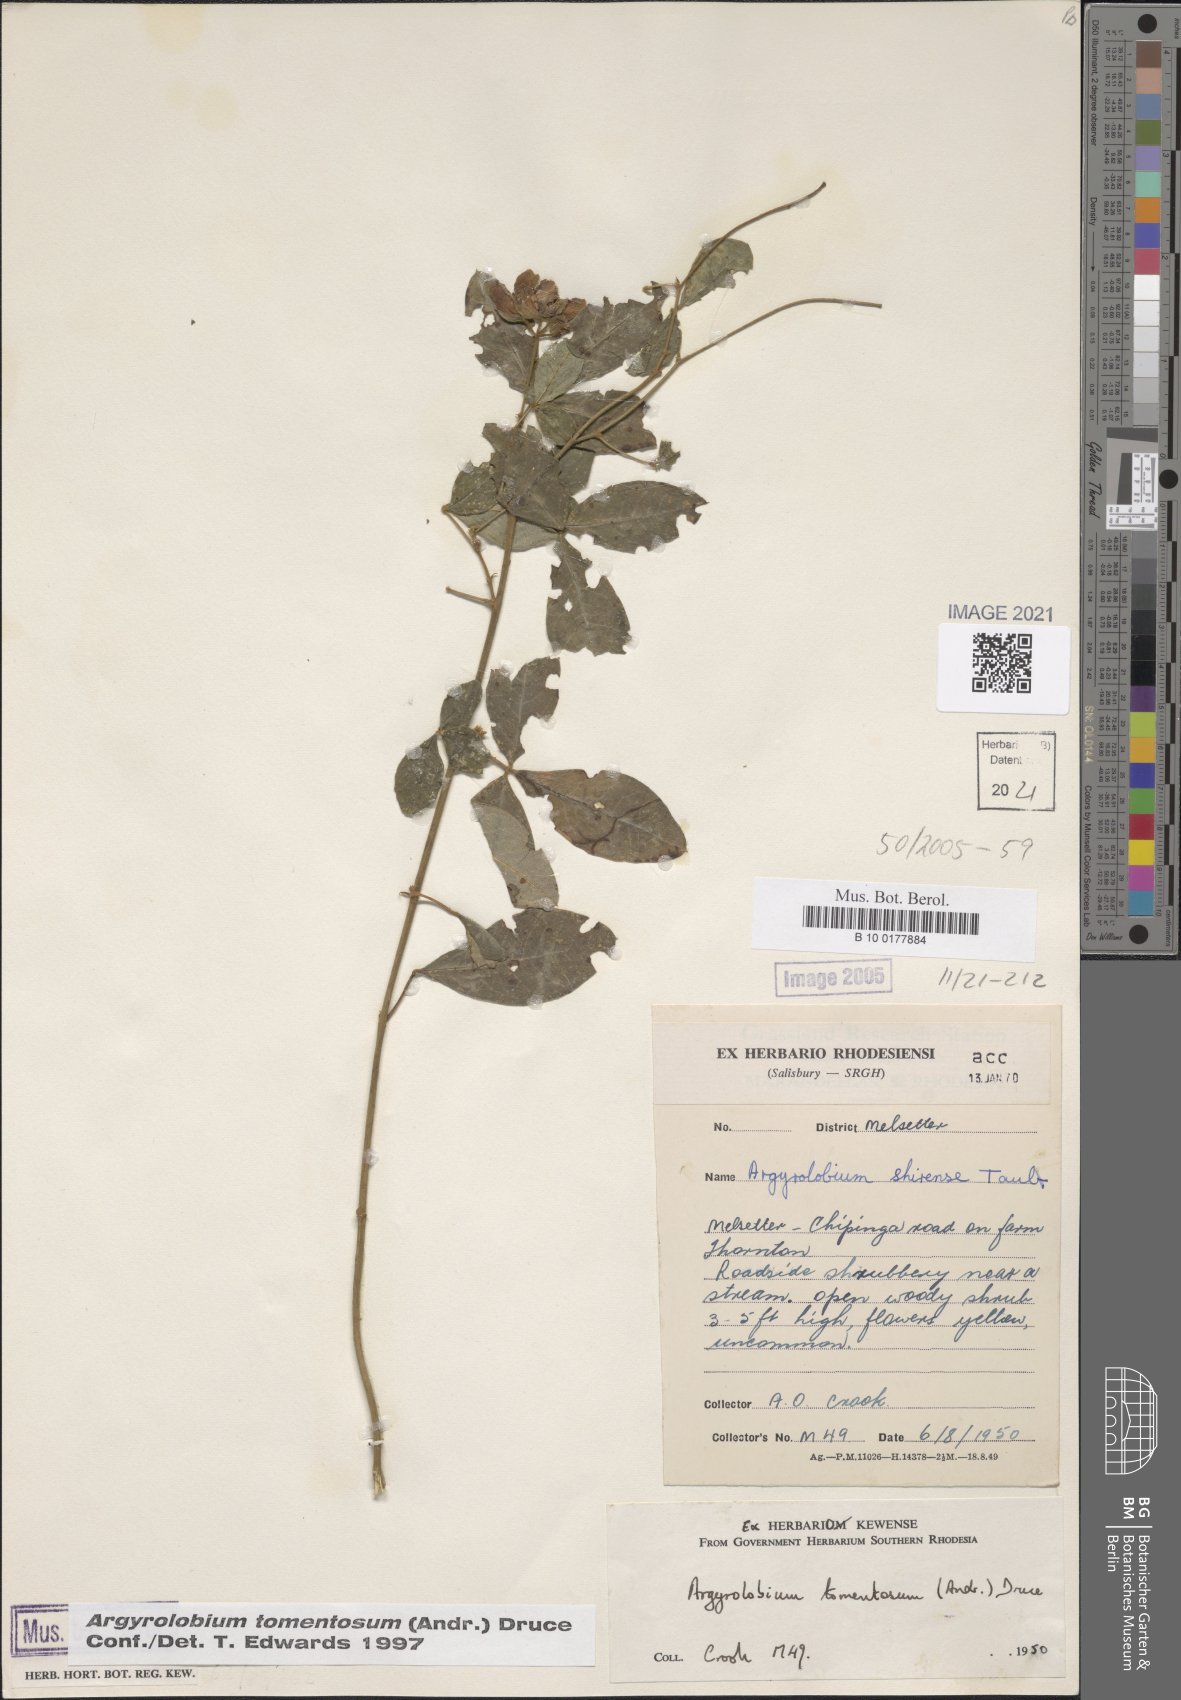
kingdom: Plantae
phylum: Tracheophyta
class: Magnoliopsida
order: Fabales
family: Fabaceae
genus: Argyrolobium
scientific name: Argyrolobium tomentosum
